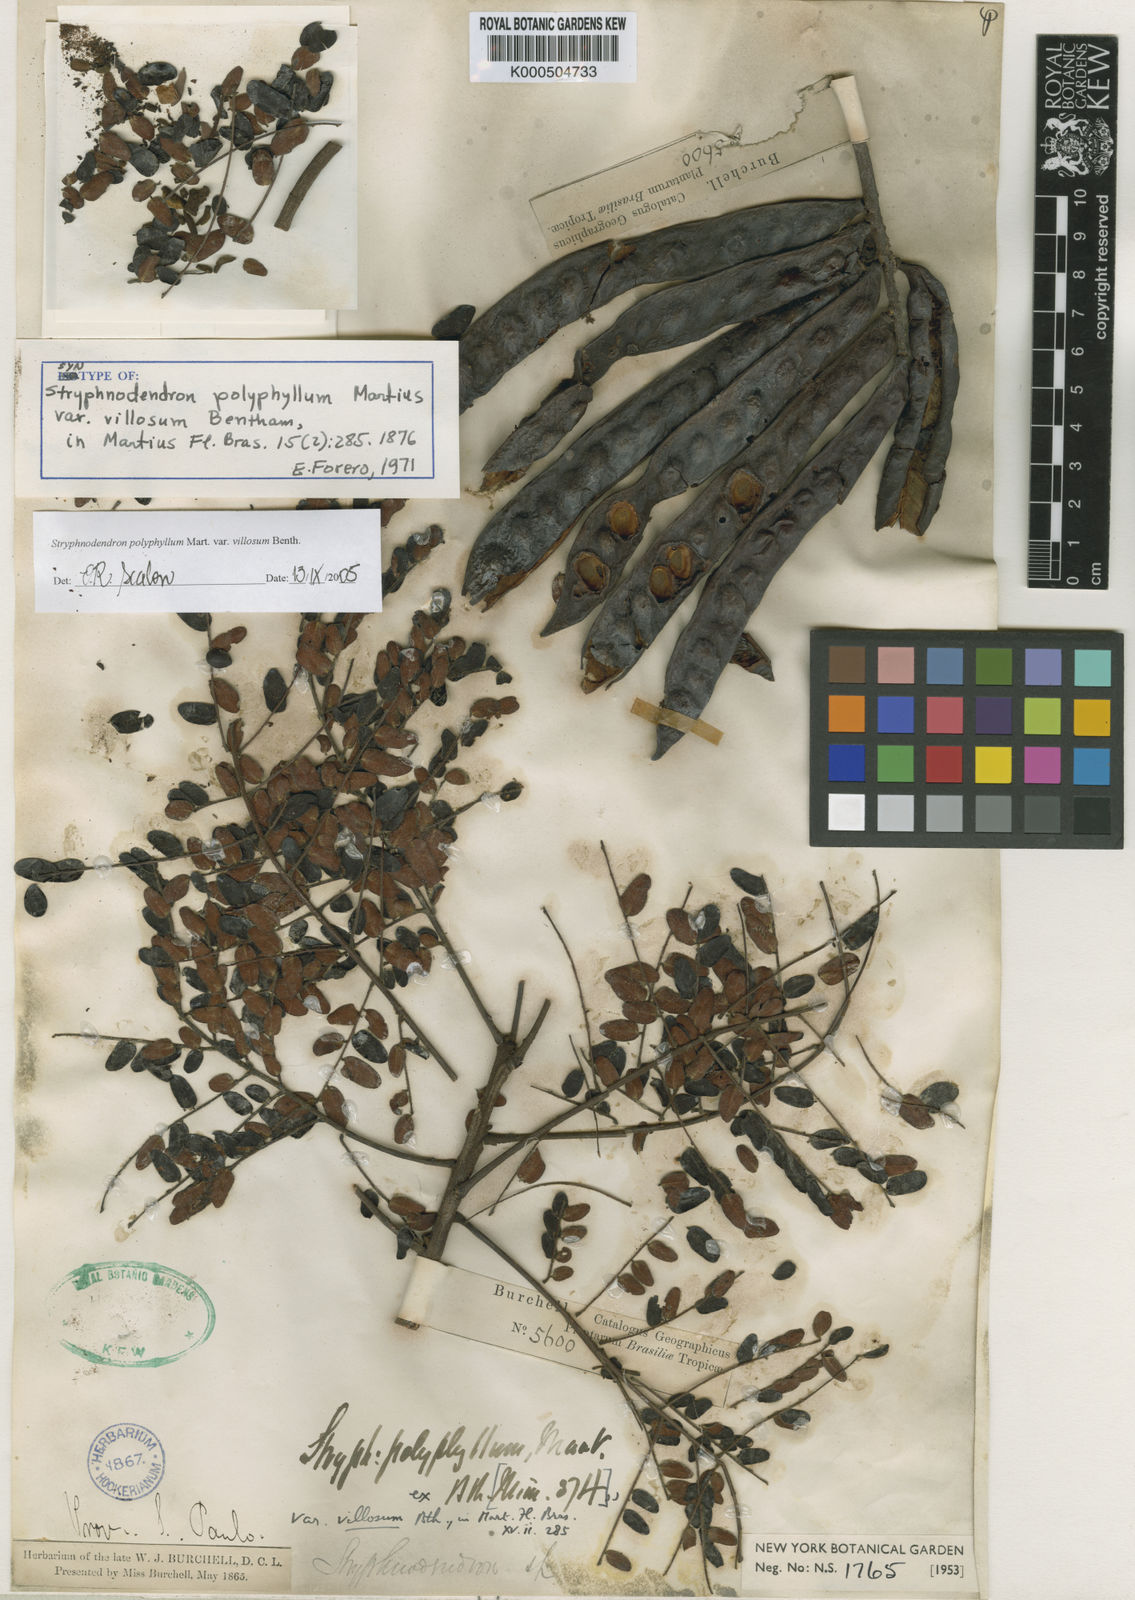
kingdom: Plantae
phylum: Tracheophyta
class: Magnoliopsida
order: Fabales
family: Fabaceae
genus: Stryphnodendron
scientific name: Stryphnodendron polyphyllum
